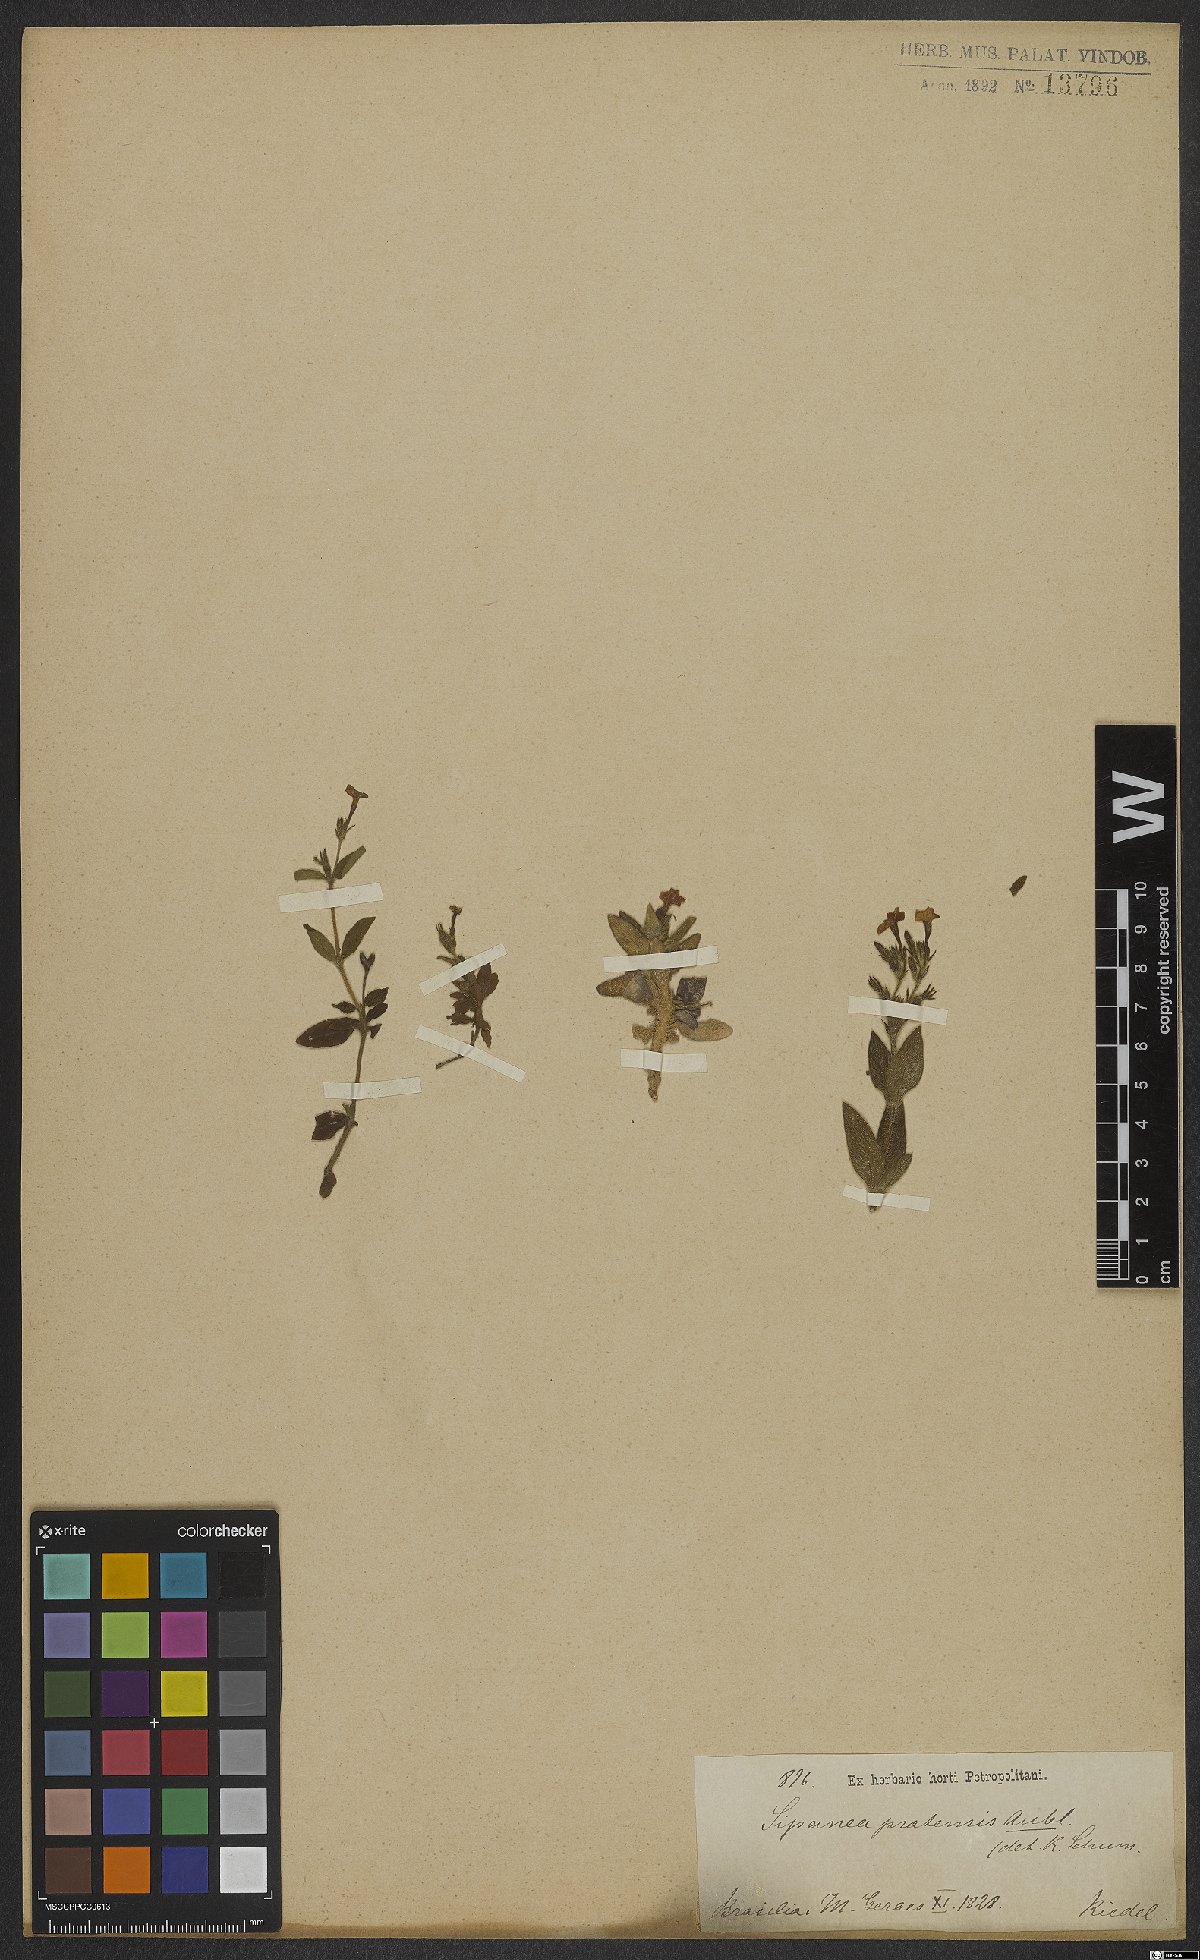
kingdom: Plantae
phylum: Tracheophyta
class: Magnoliopsida
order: Gentianales
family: Rubiaceae
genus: Sipanea
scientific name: Sipanea pratensis
